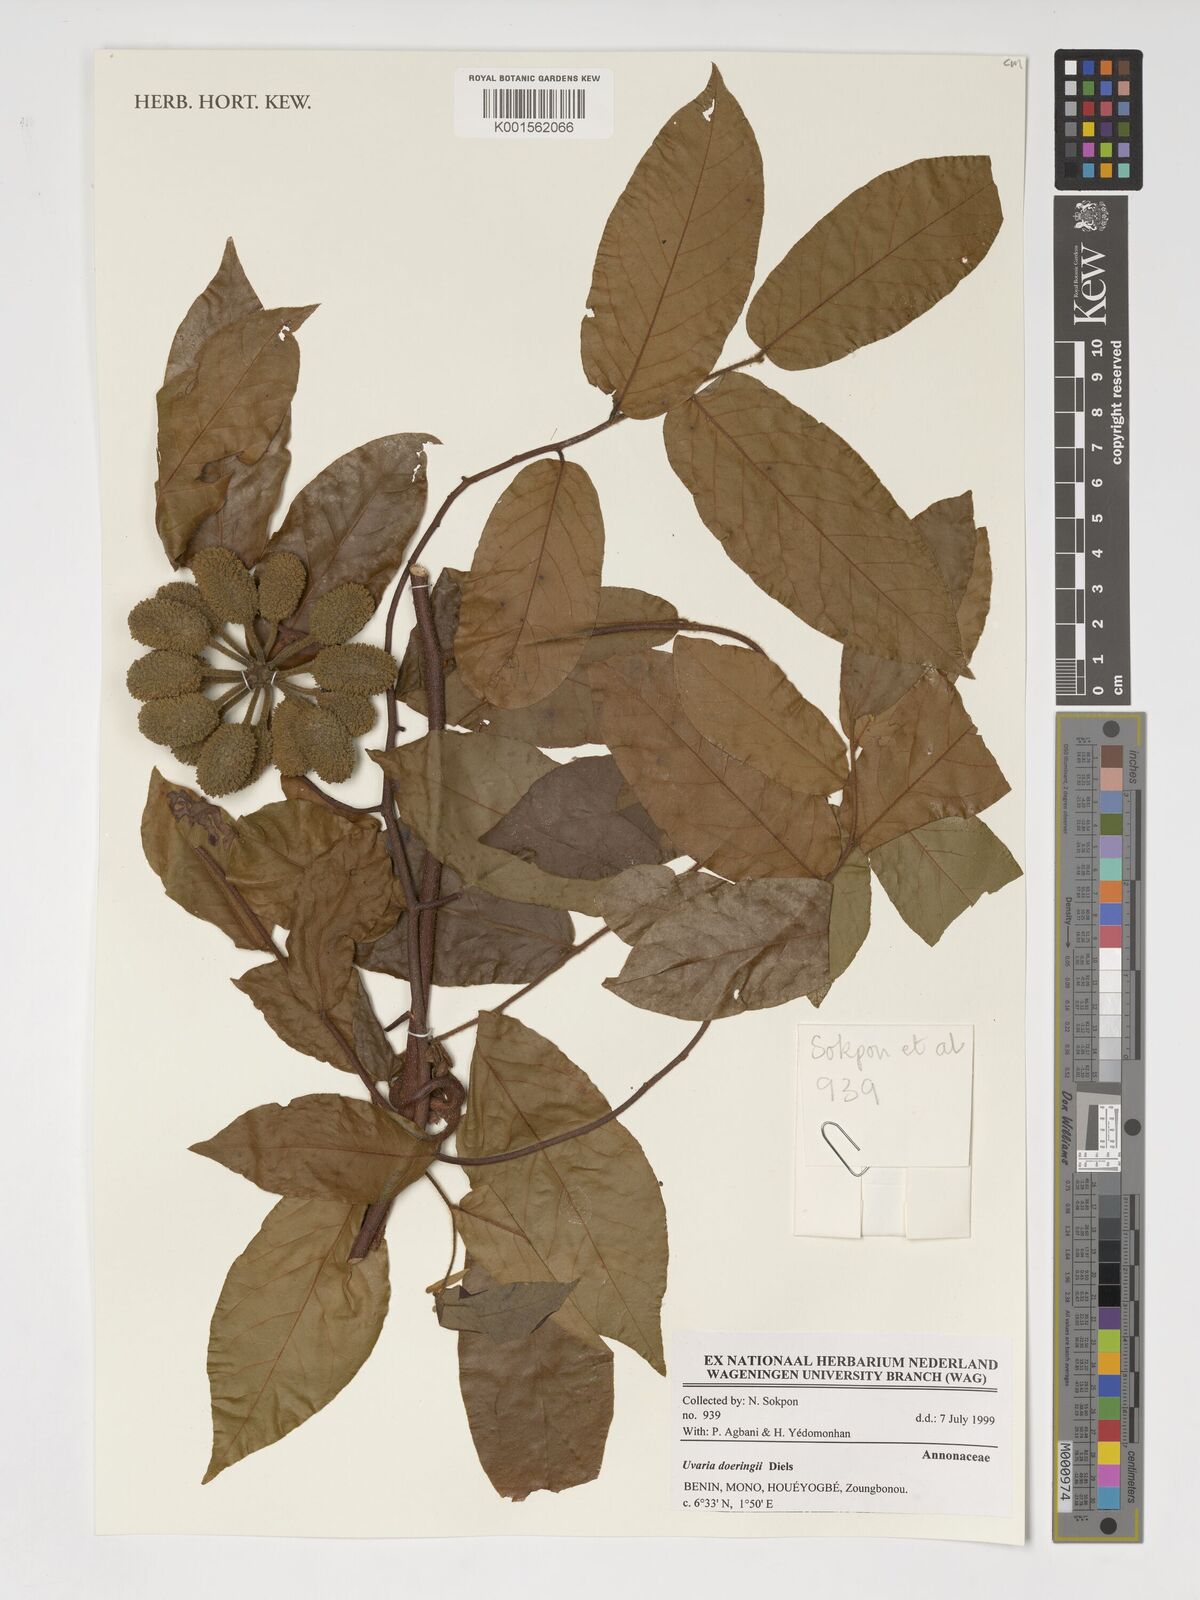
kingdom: Plantae
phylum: Tracheophyta
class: Magnoliopsida
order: Magnoliales
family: Annonaceae
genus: Uvaria
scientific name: Uvaria doeringii
